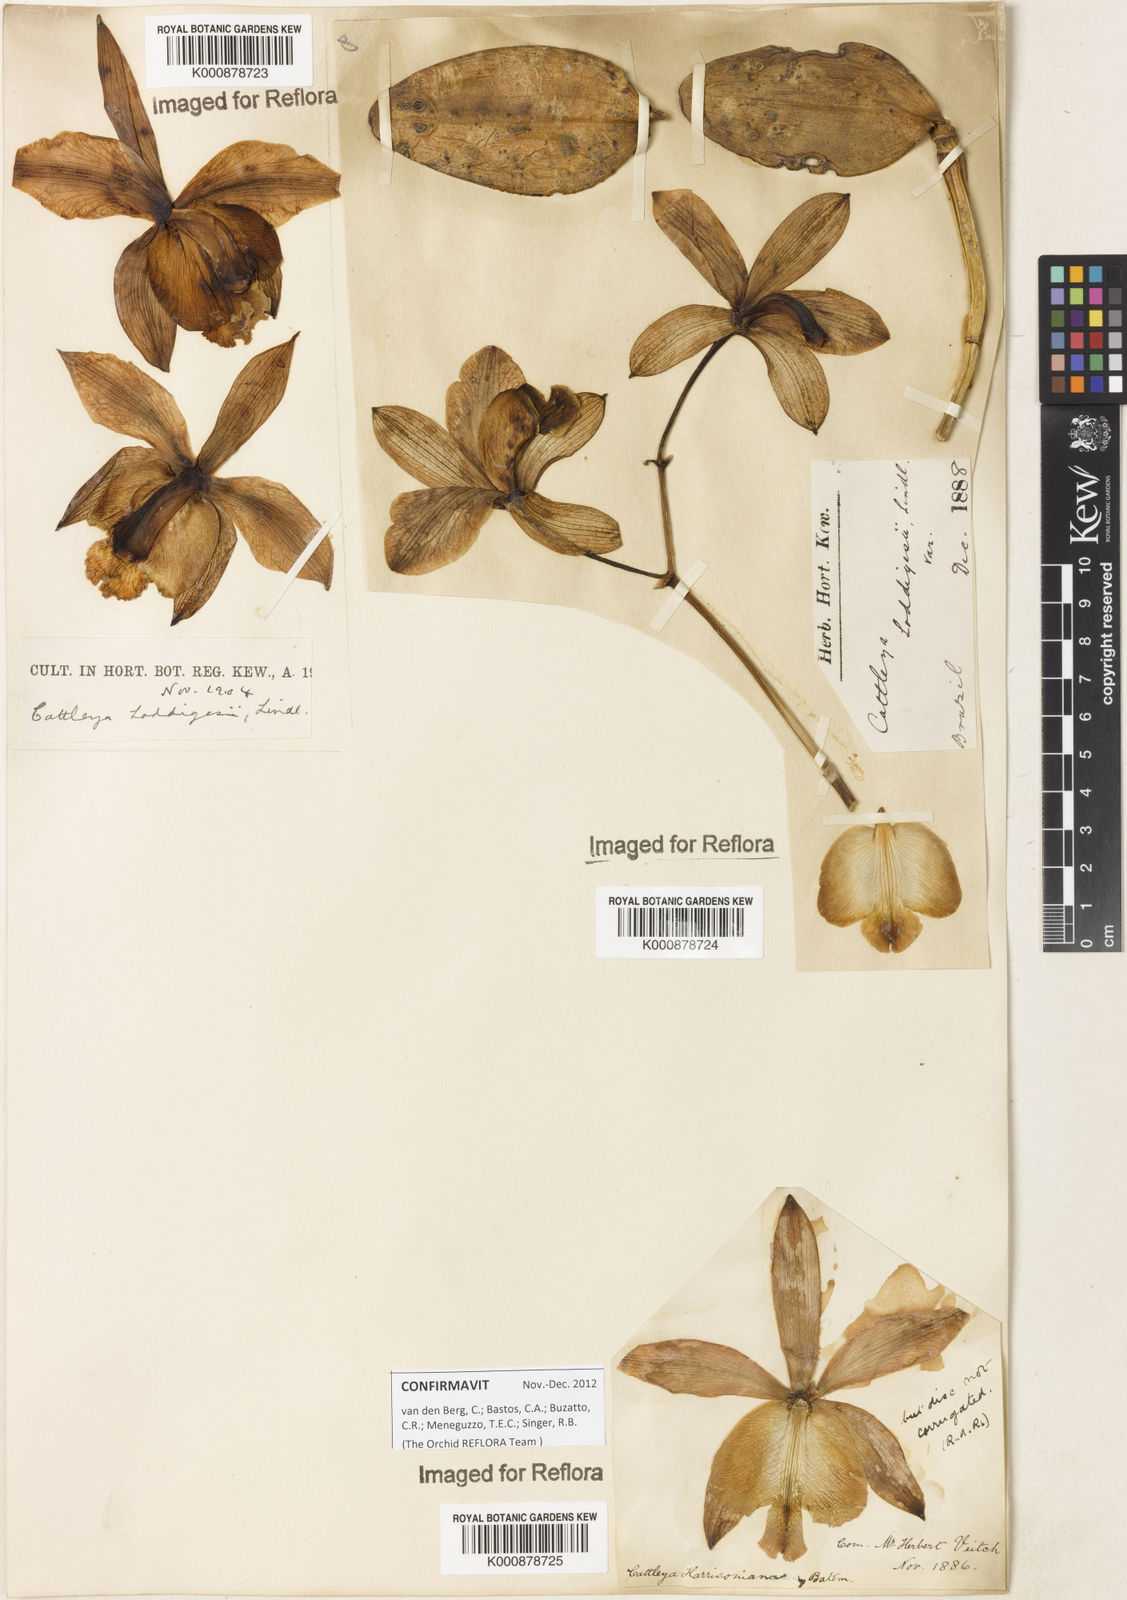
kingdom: Plantae
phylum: Tracheophyta
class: Liliopsida
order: Asparagales
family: Orchidaceae
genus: Cattleya
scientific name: Cattleya loddigesii
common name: Loddiges's cattleya
